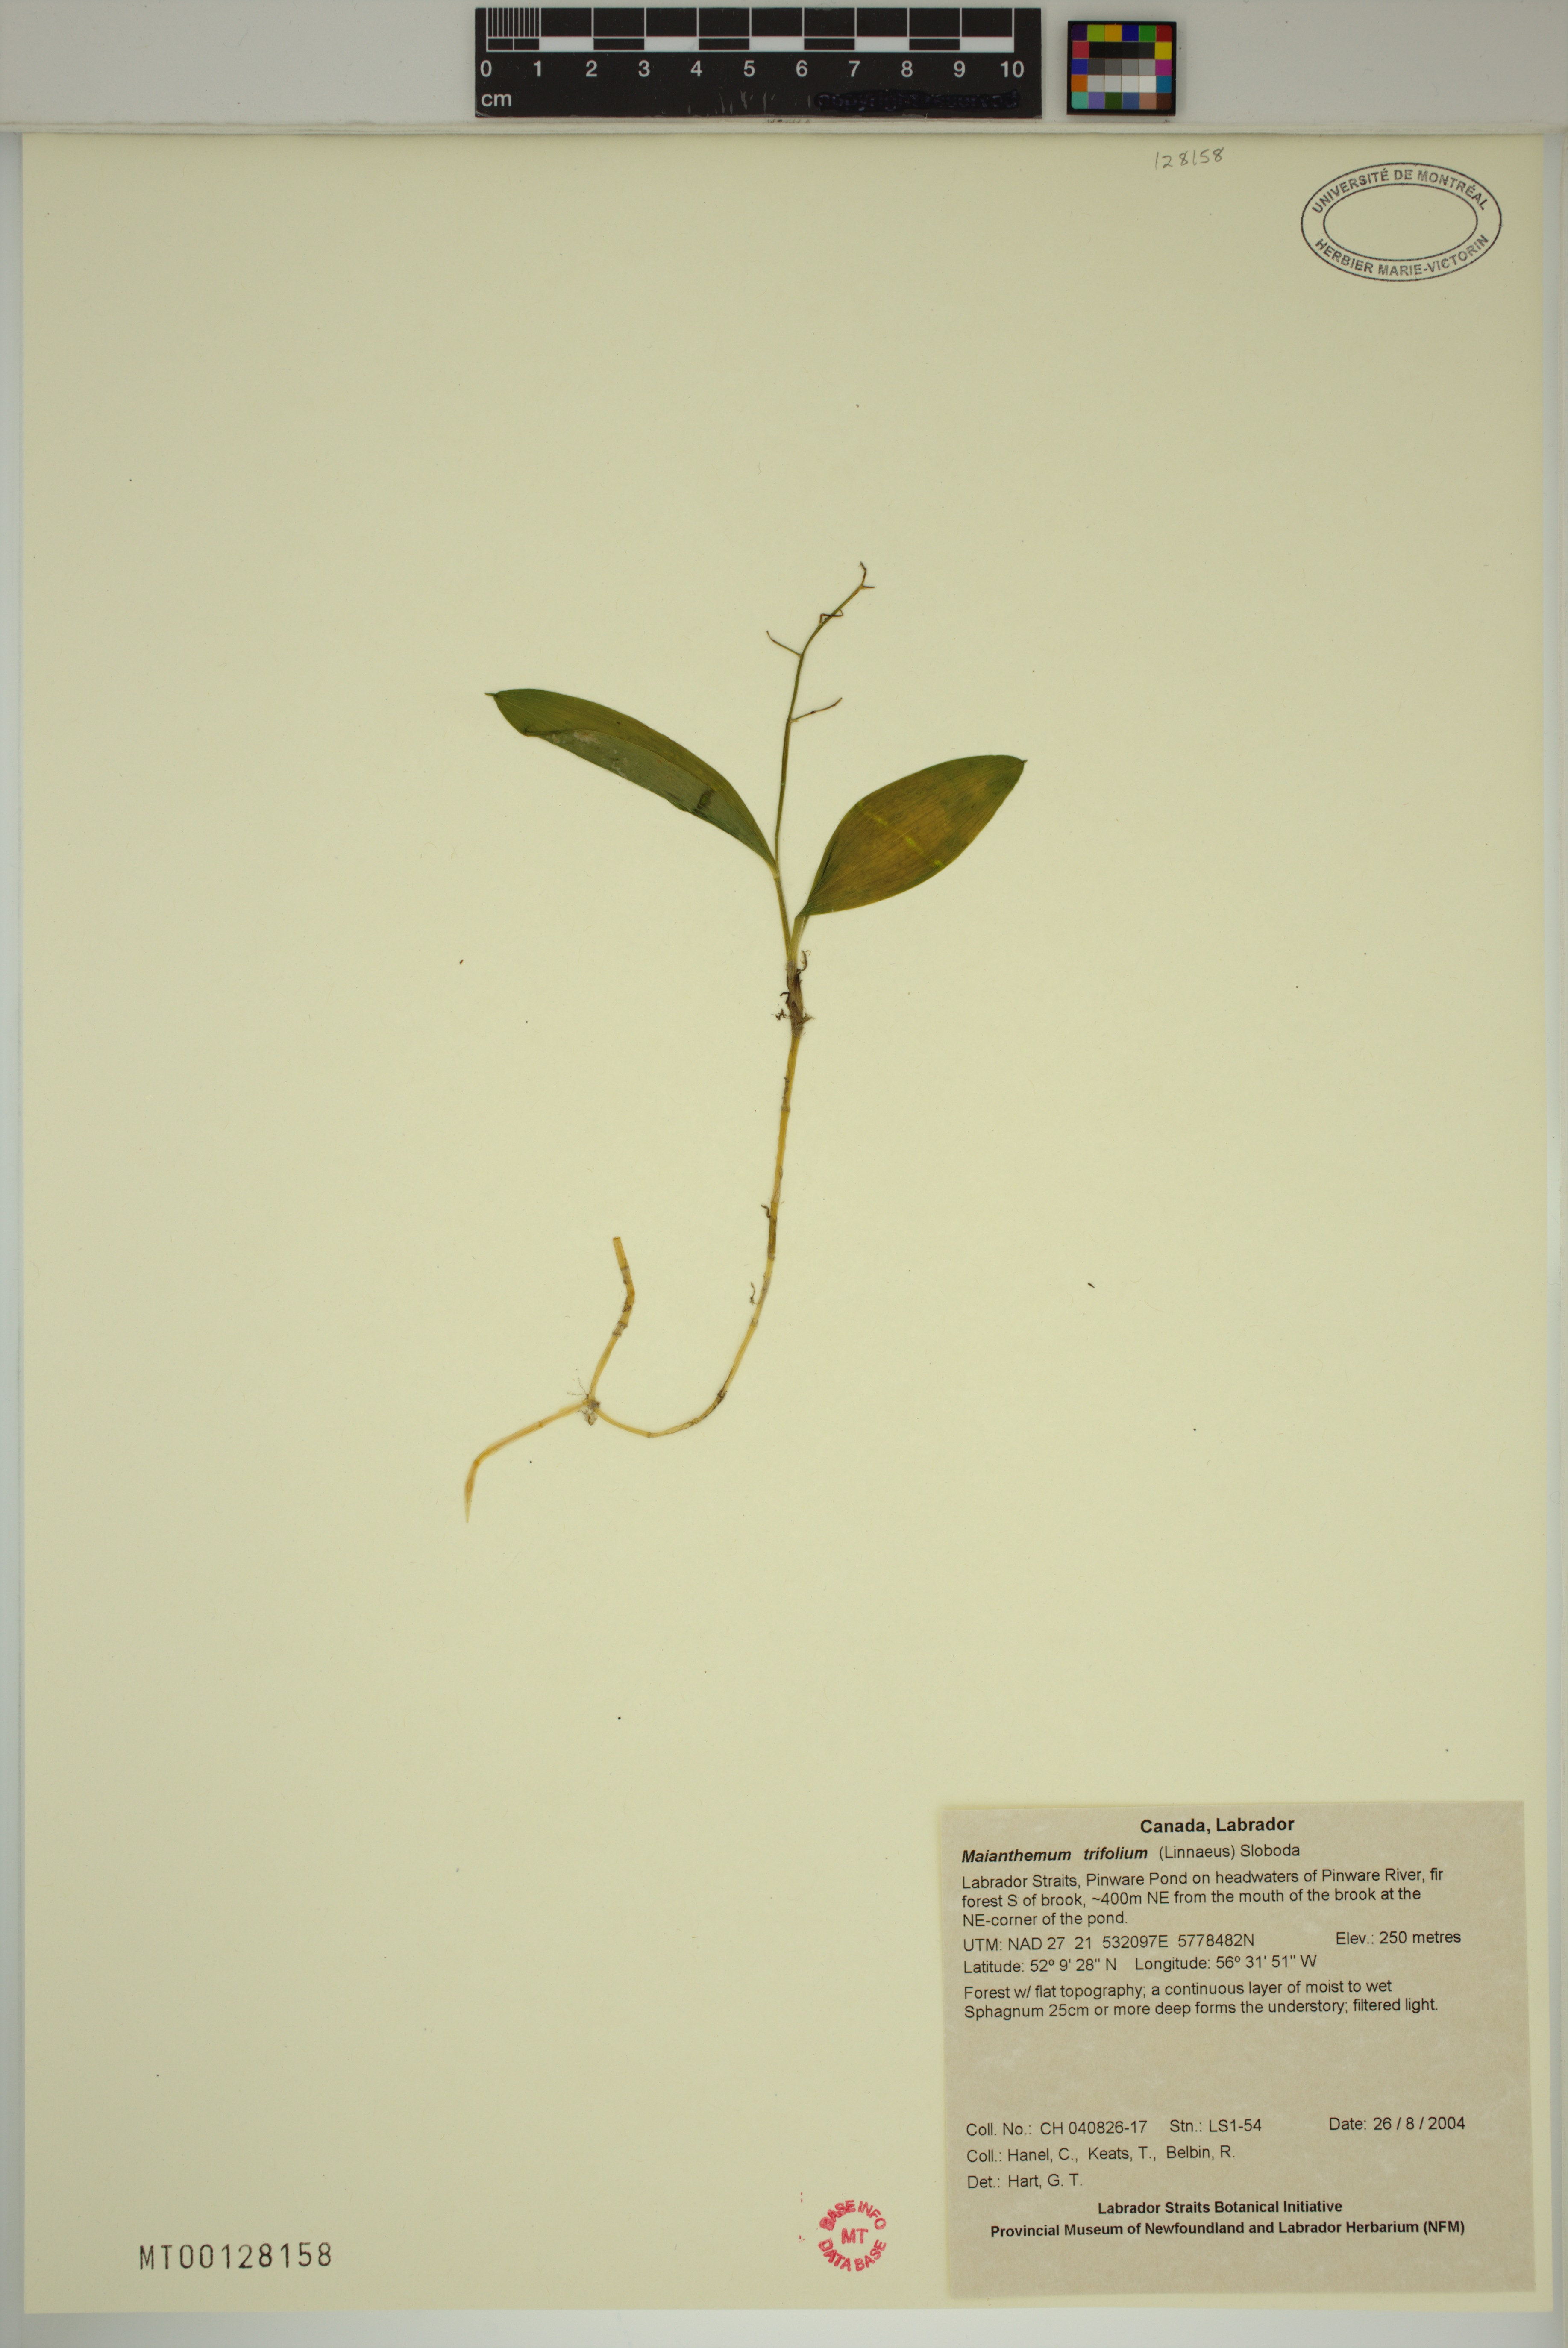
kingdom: Plantae
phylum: Tracheophyta
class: Liliopsida
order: Asparagales
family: Asparagaceae
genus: Maianthemum
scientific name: Maianthemum trifolium
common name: Swamp false solomon's seal
